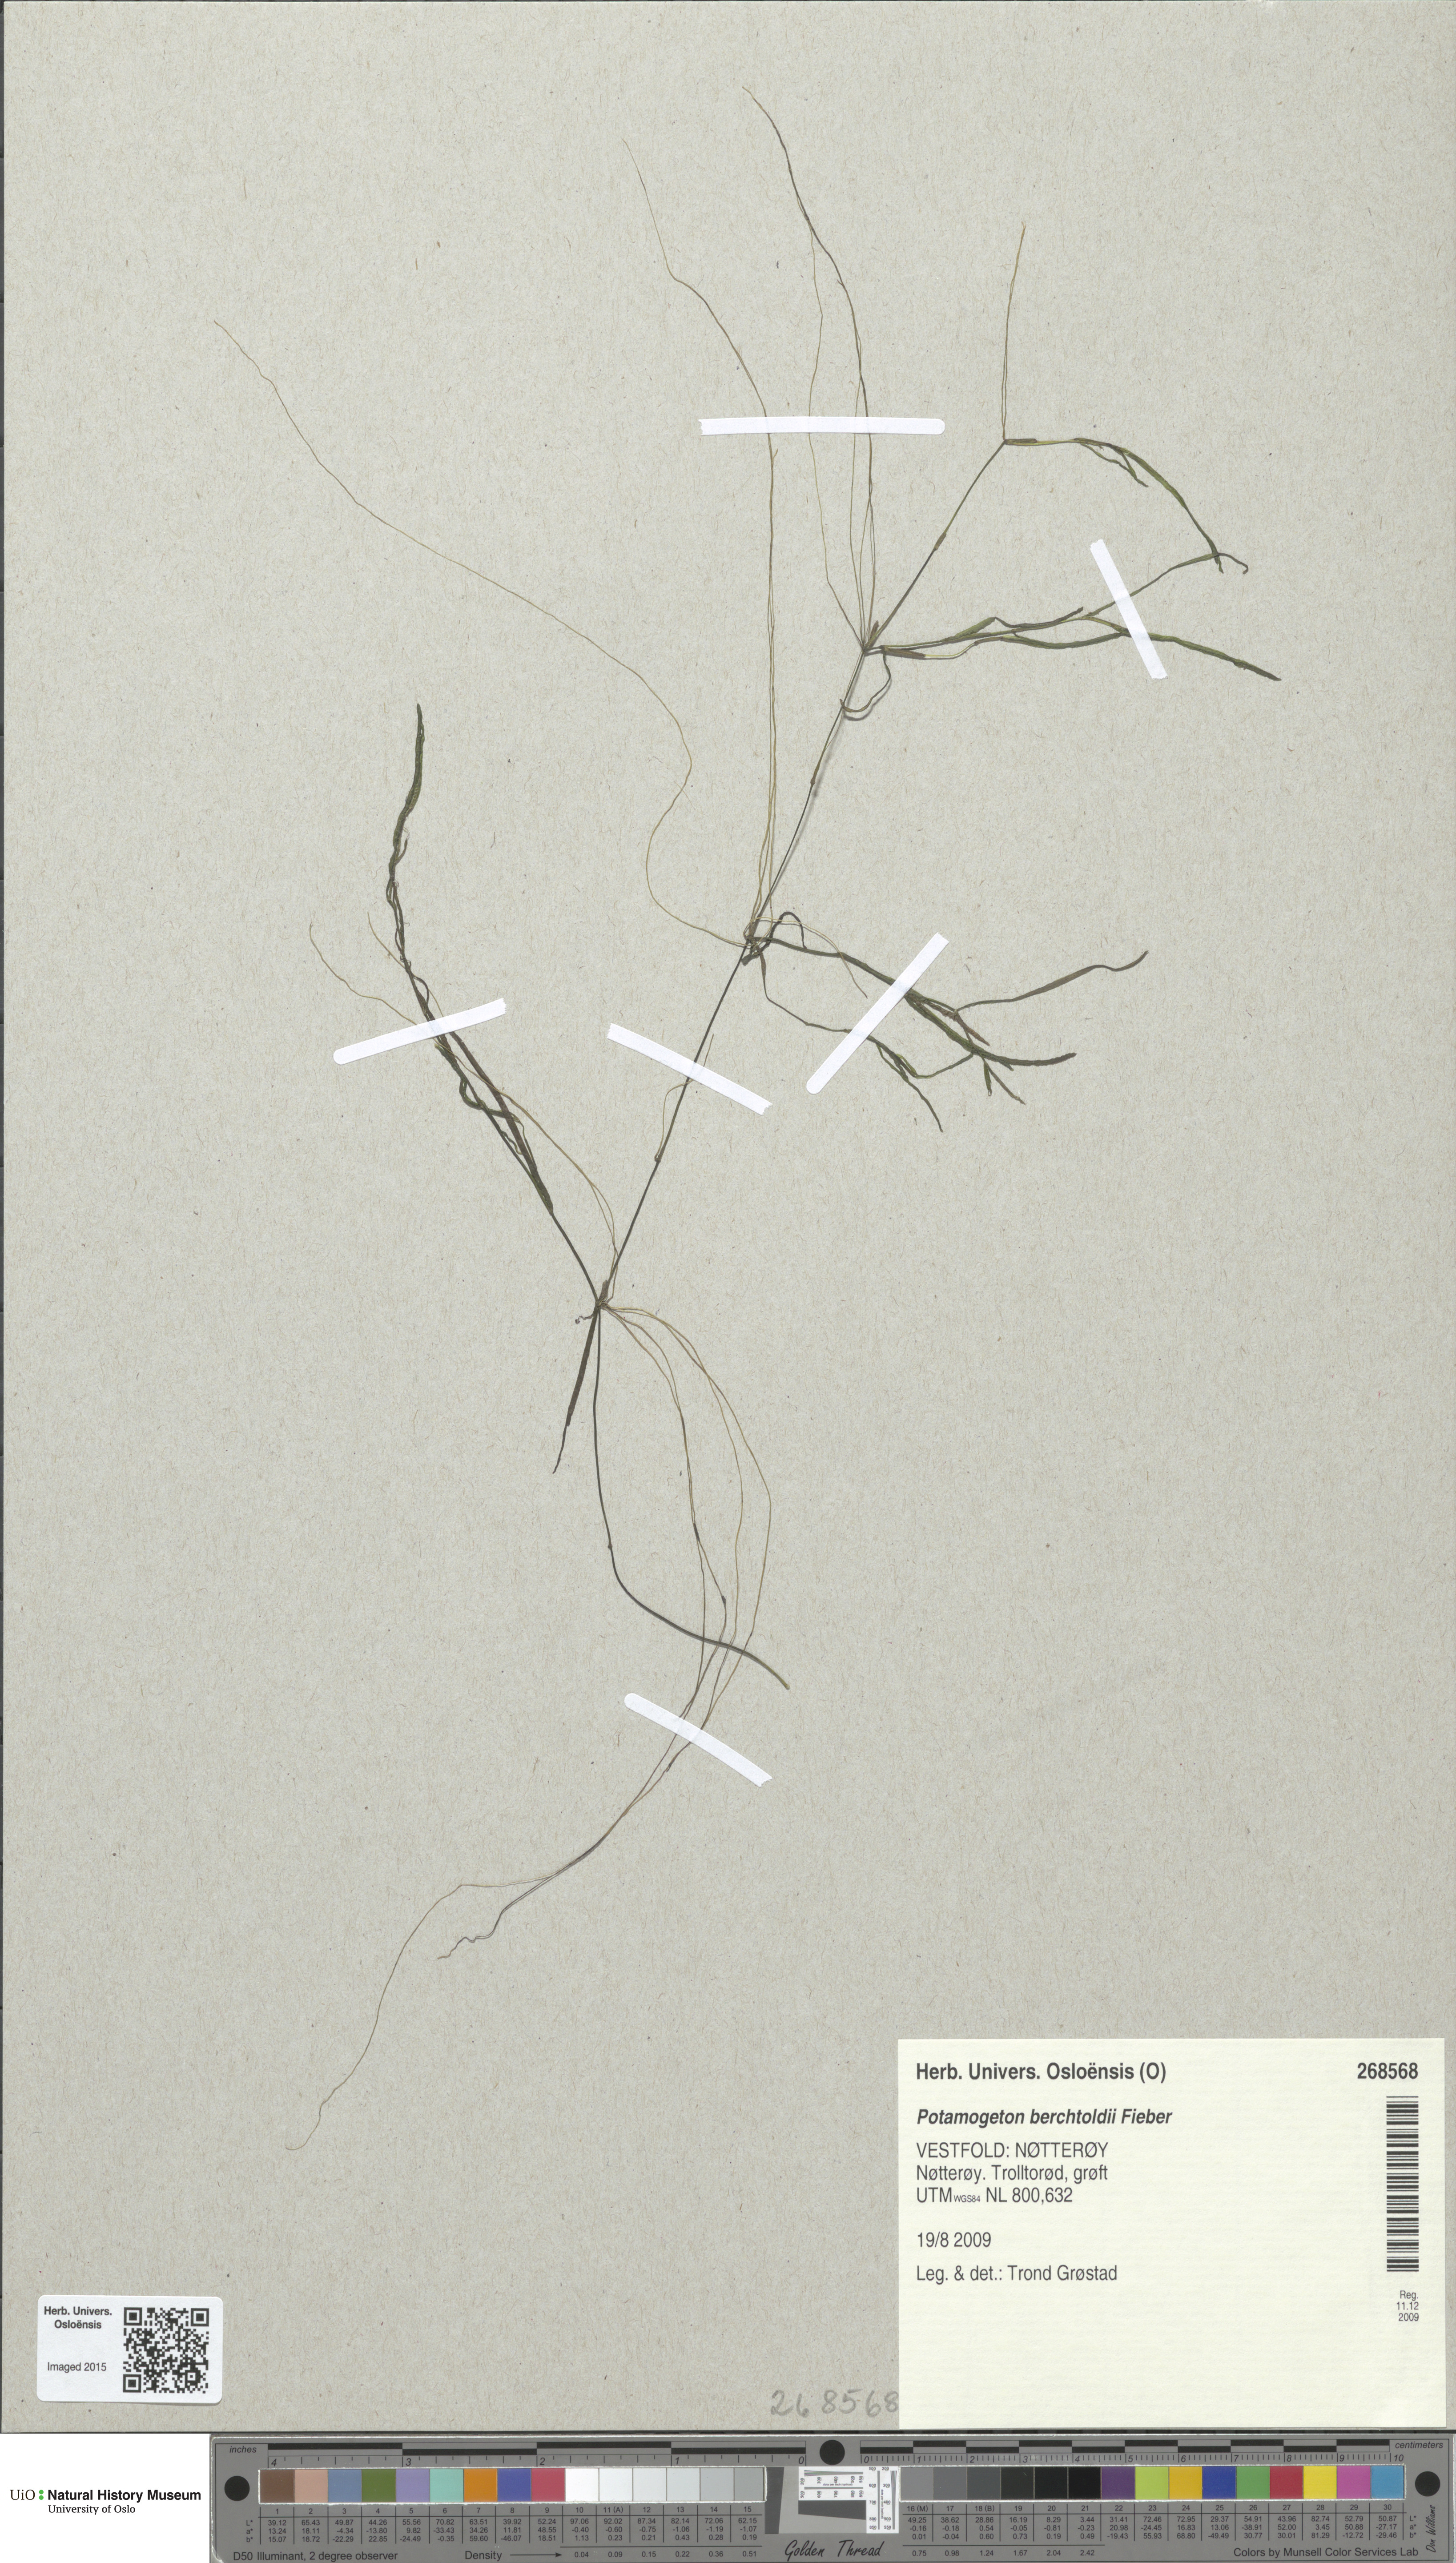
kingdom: Plantae
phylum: Tracheophyta
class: Liliopsida
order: Alismatales
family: Potamogetonaceae
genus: Potamogeton
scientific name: Potamogeton berchtoldii
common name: Small pondweed
